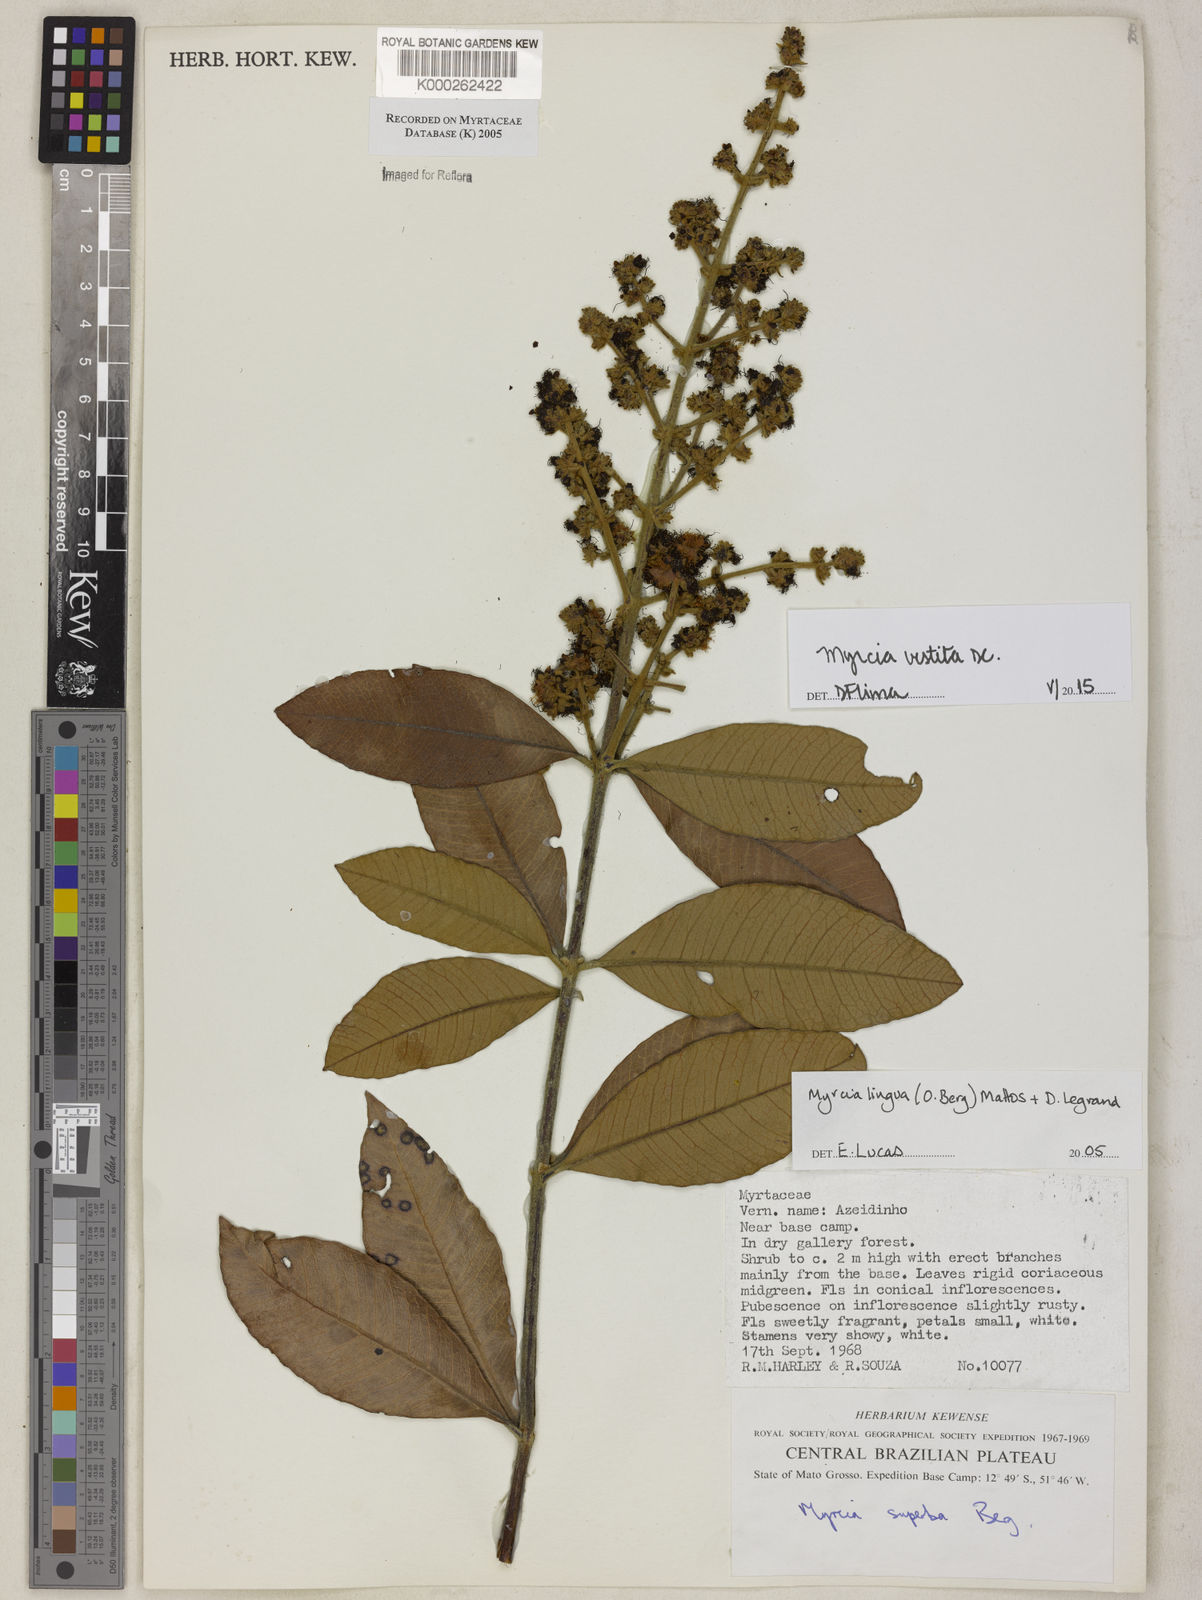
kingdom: Plantae
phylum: Tracheophyta
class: Magnoliopsida
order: Myrtales
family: Myrtaceae
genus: Myrcia
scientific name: Myrcia guianensis
